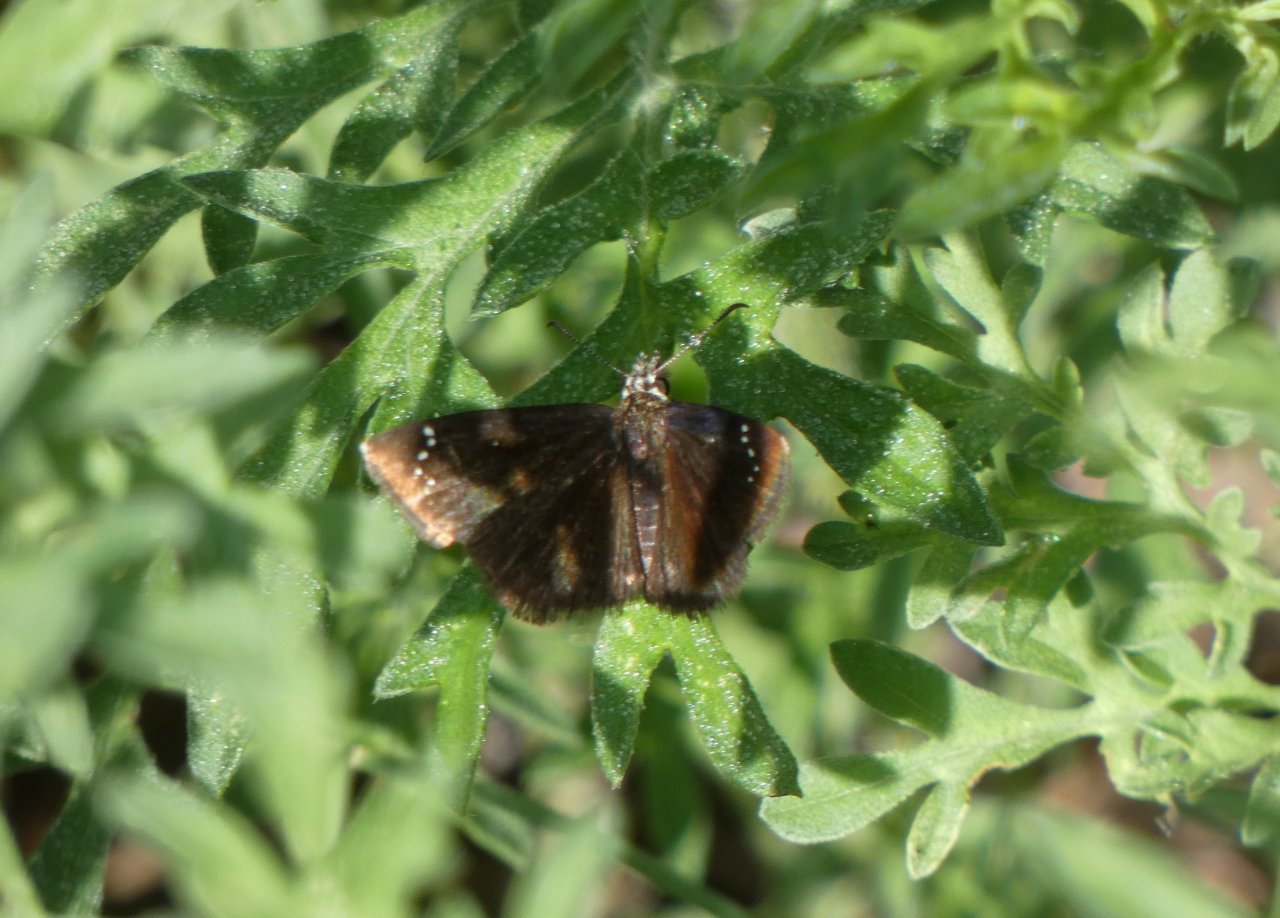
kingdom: Animalia
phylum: Arthropoda
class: Insecta
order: Lepidoptera
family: Hesperiidae
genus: Pholisora
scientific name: Pholisora catullus
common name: Common Sootywing
